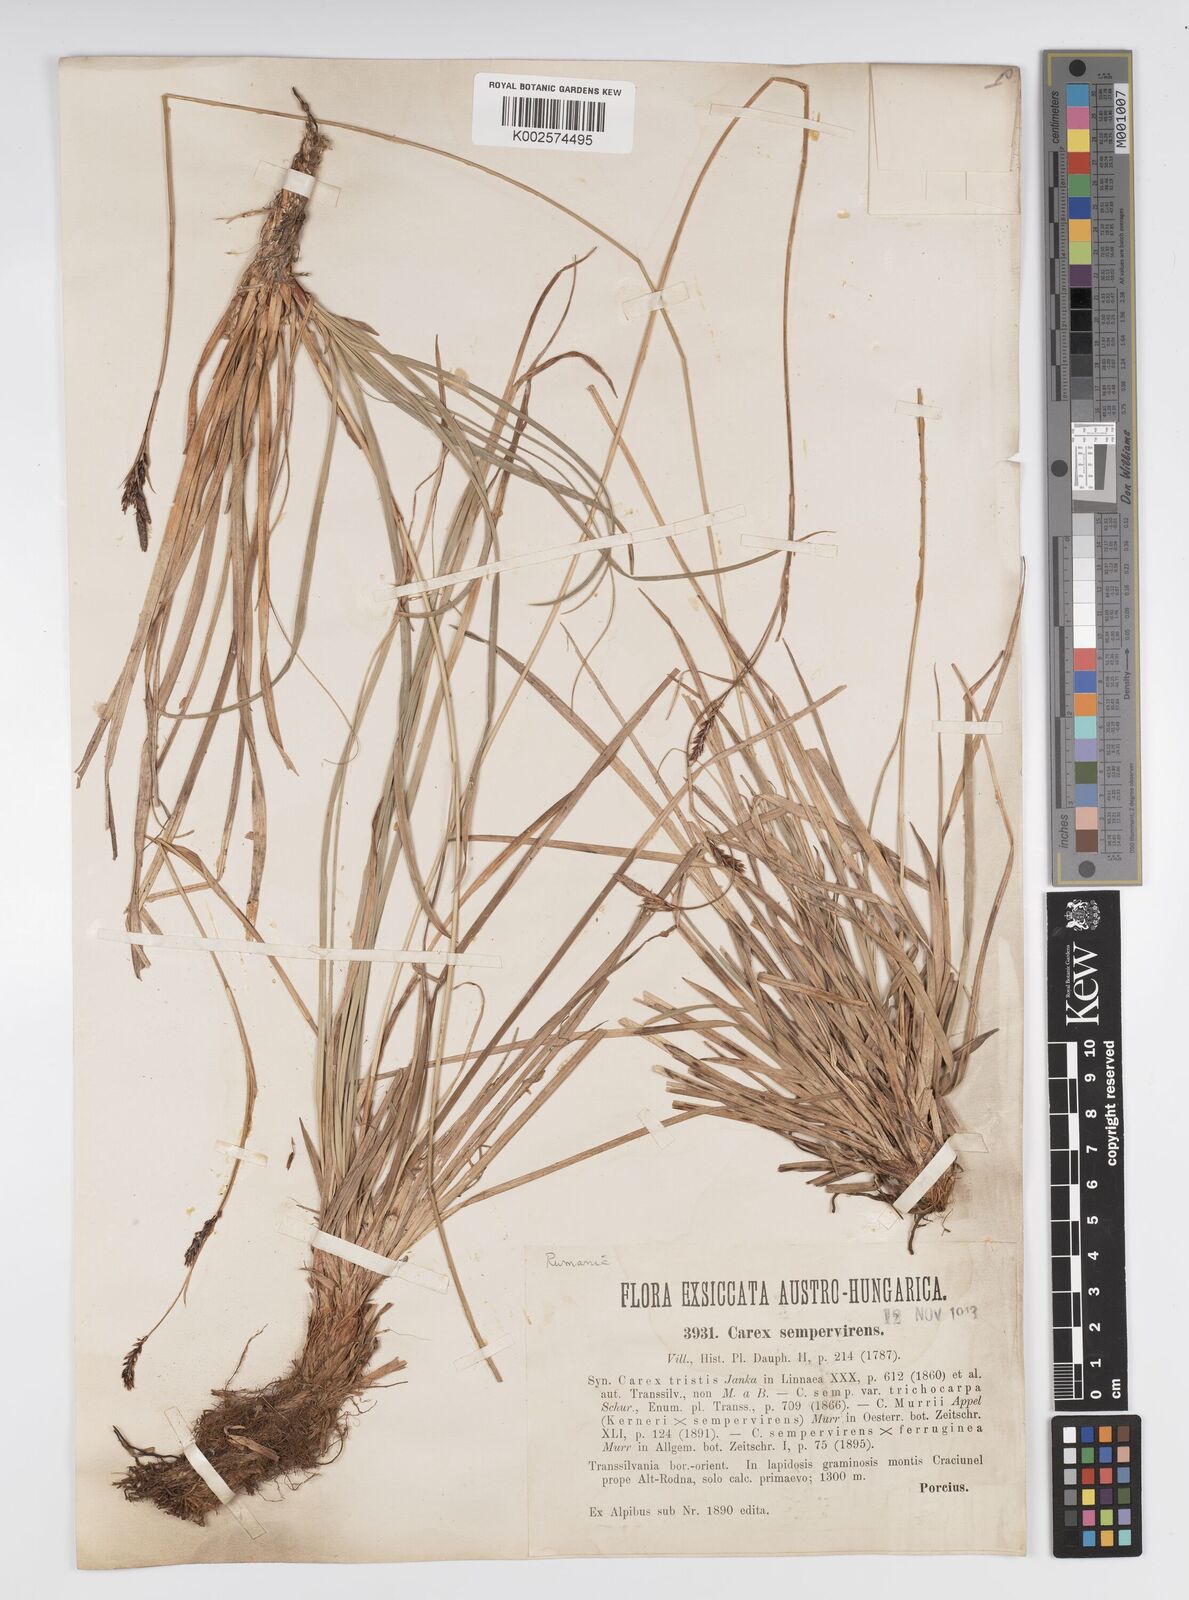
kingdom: Plantae
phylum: Tracheophyta
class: Liliopsida
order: Poales
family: Cyperaceae
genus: Carex
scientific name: Carex sempervirens
